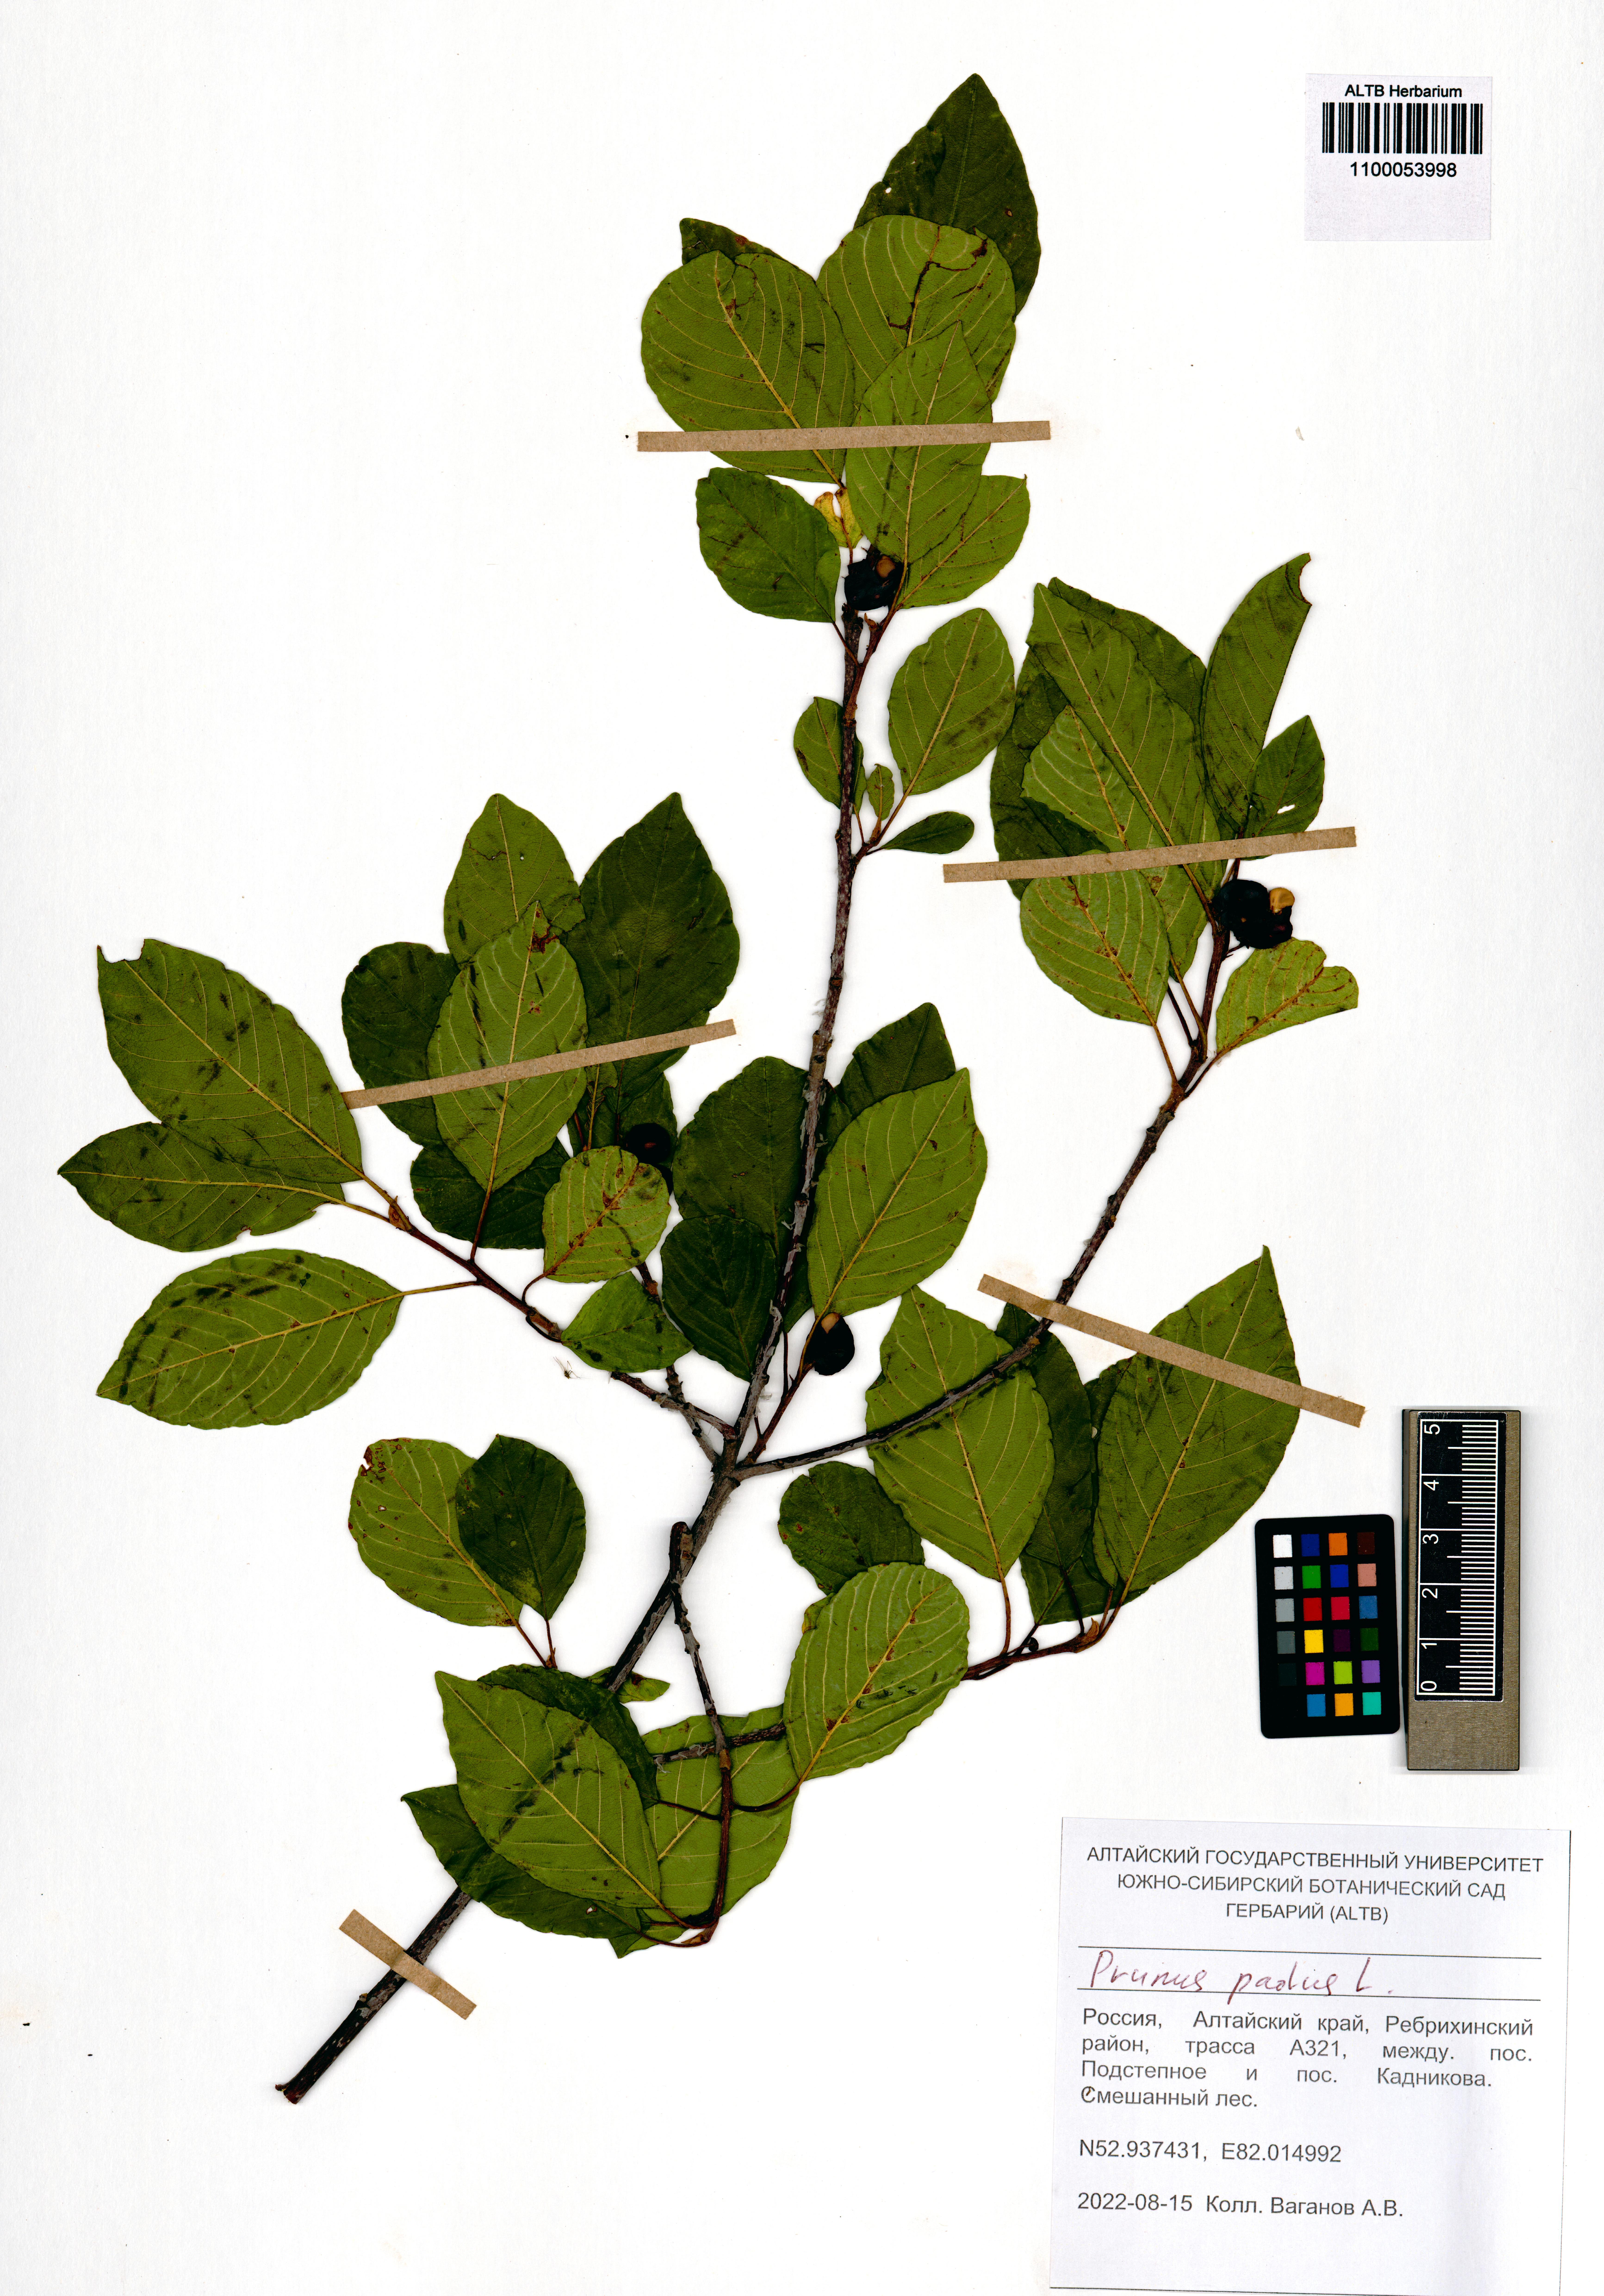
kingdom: Plantae
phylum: Tracheophyta
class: Magnoliopsida
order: Rosales
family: Rosaceae
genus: Prunus
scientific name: Prunus padus
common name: Bird cherry
